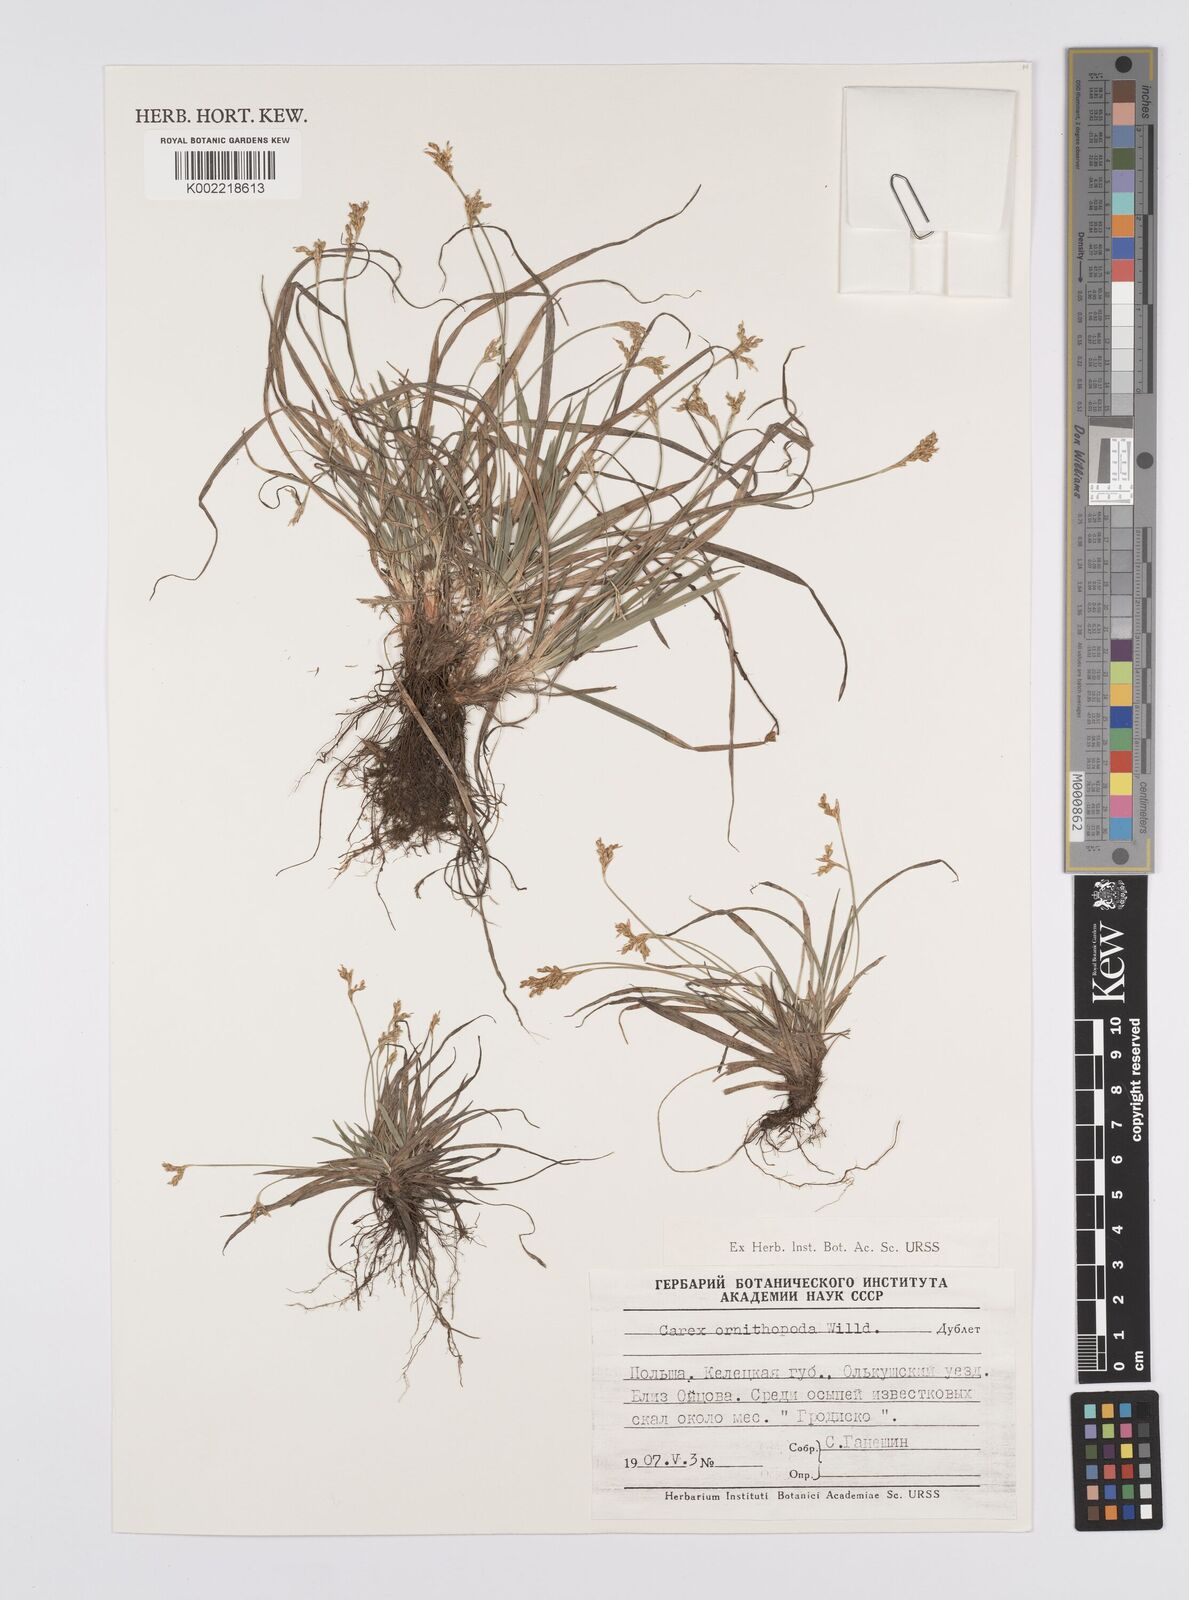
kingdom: Plantae
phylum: Tracheophyta
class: Liliopsida
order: Poales
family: Cyperaceae
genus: Carex
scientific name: Carex ornithopoda
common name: Bird's-foot sedge
